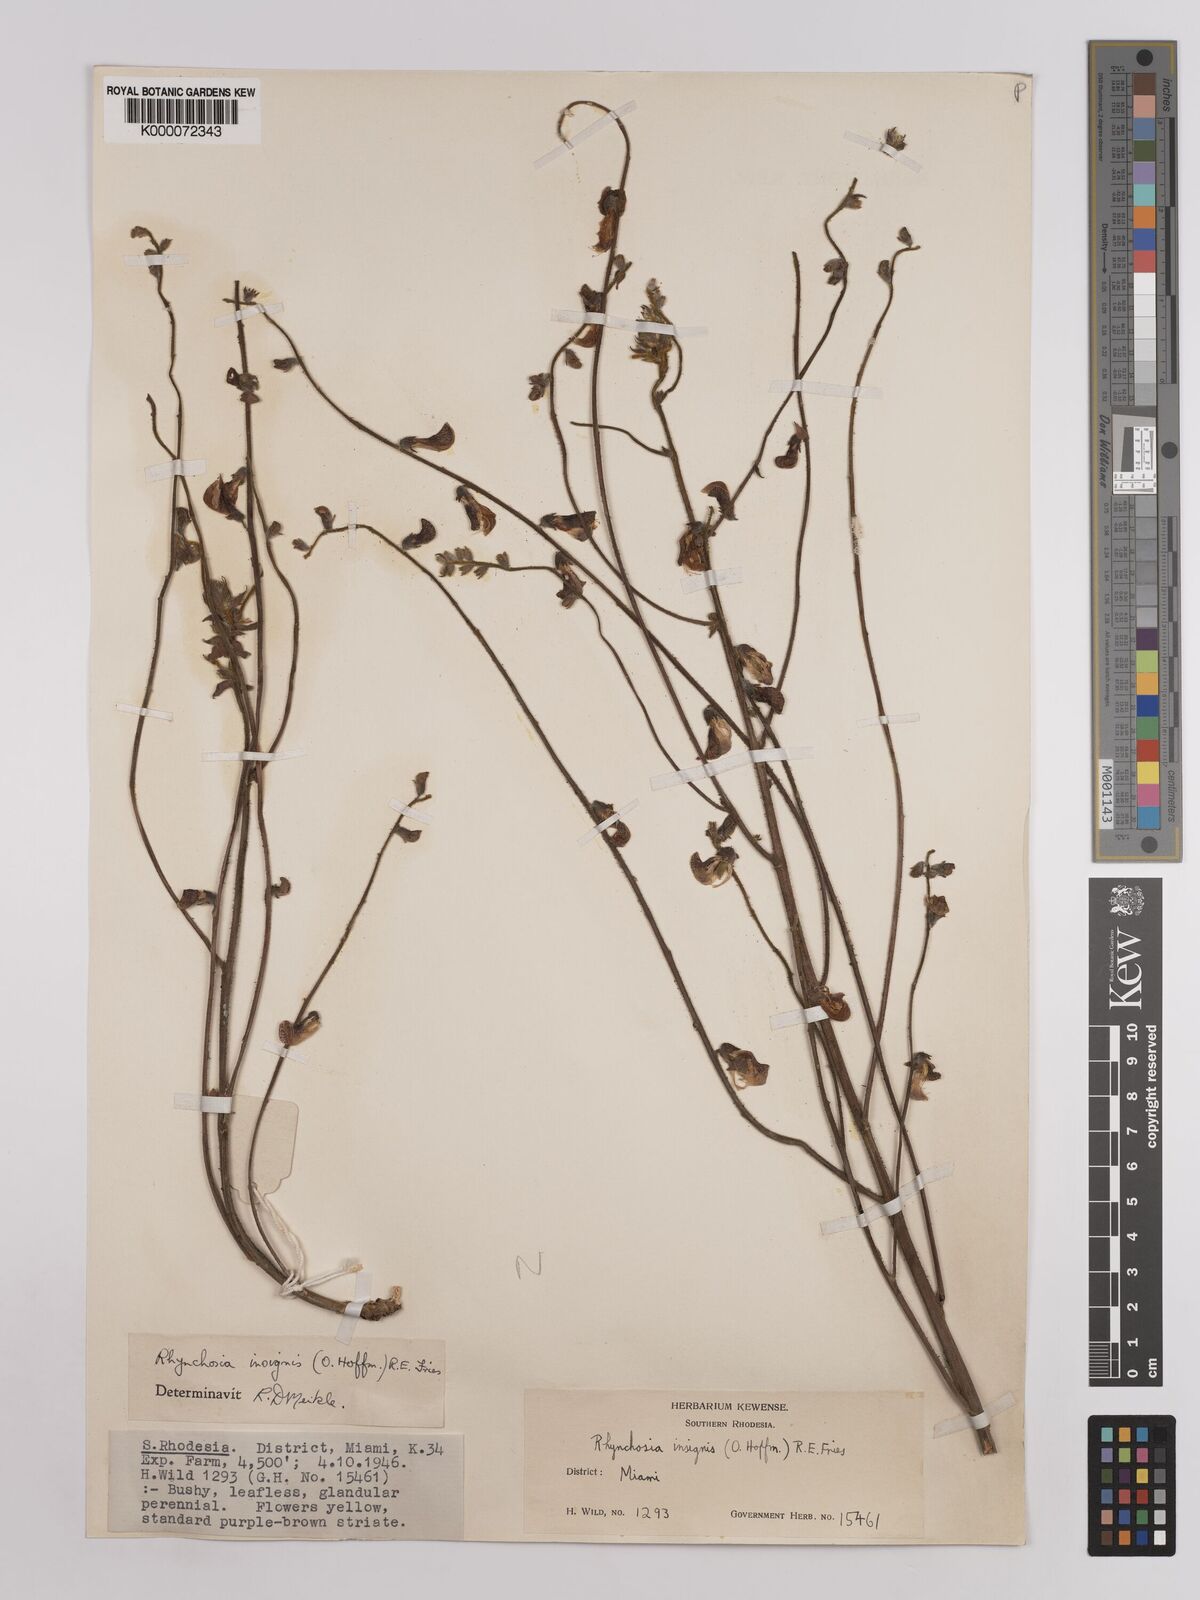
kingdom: Plantae
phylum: Tracheophyta
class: Magnoliopsida
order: Fabales
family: Fabaceae
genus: Rhynchosia
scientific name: Rhynchosia insignis
